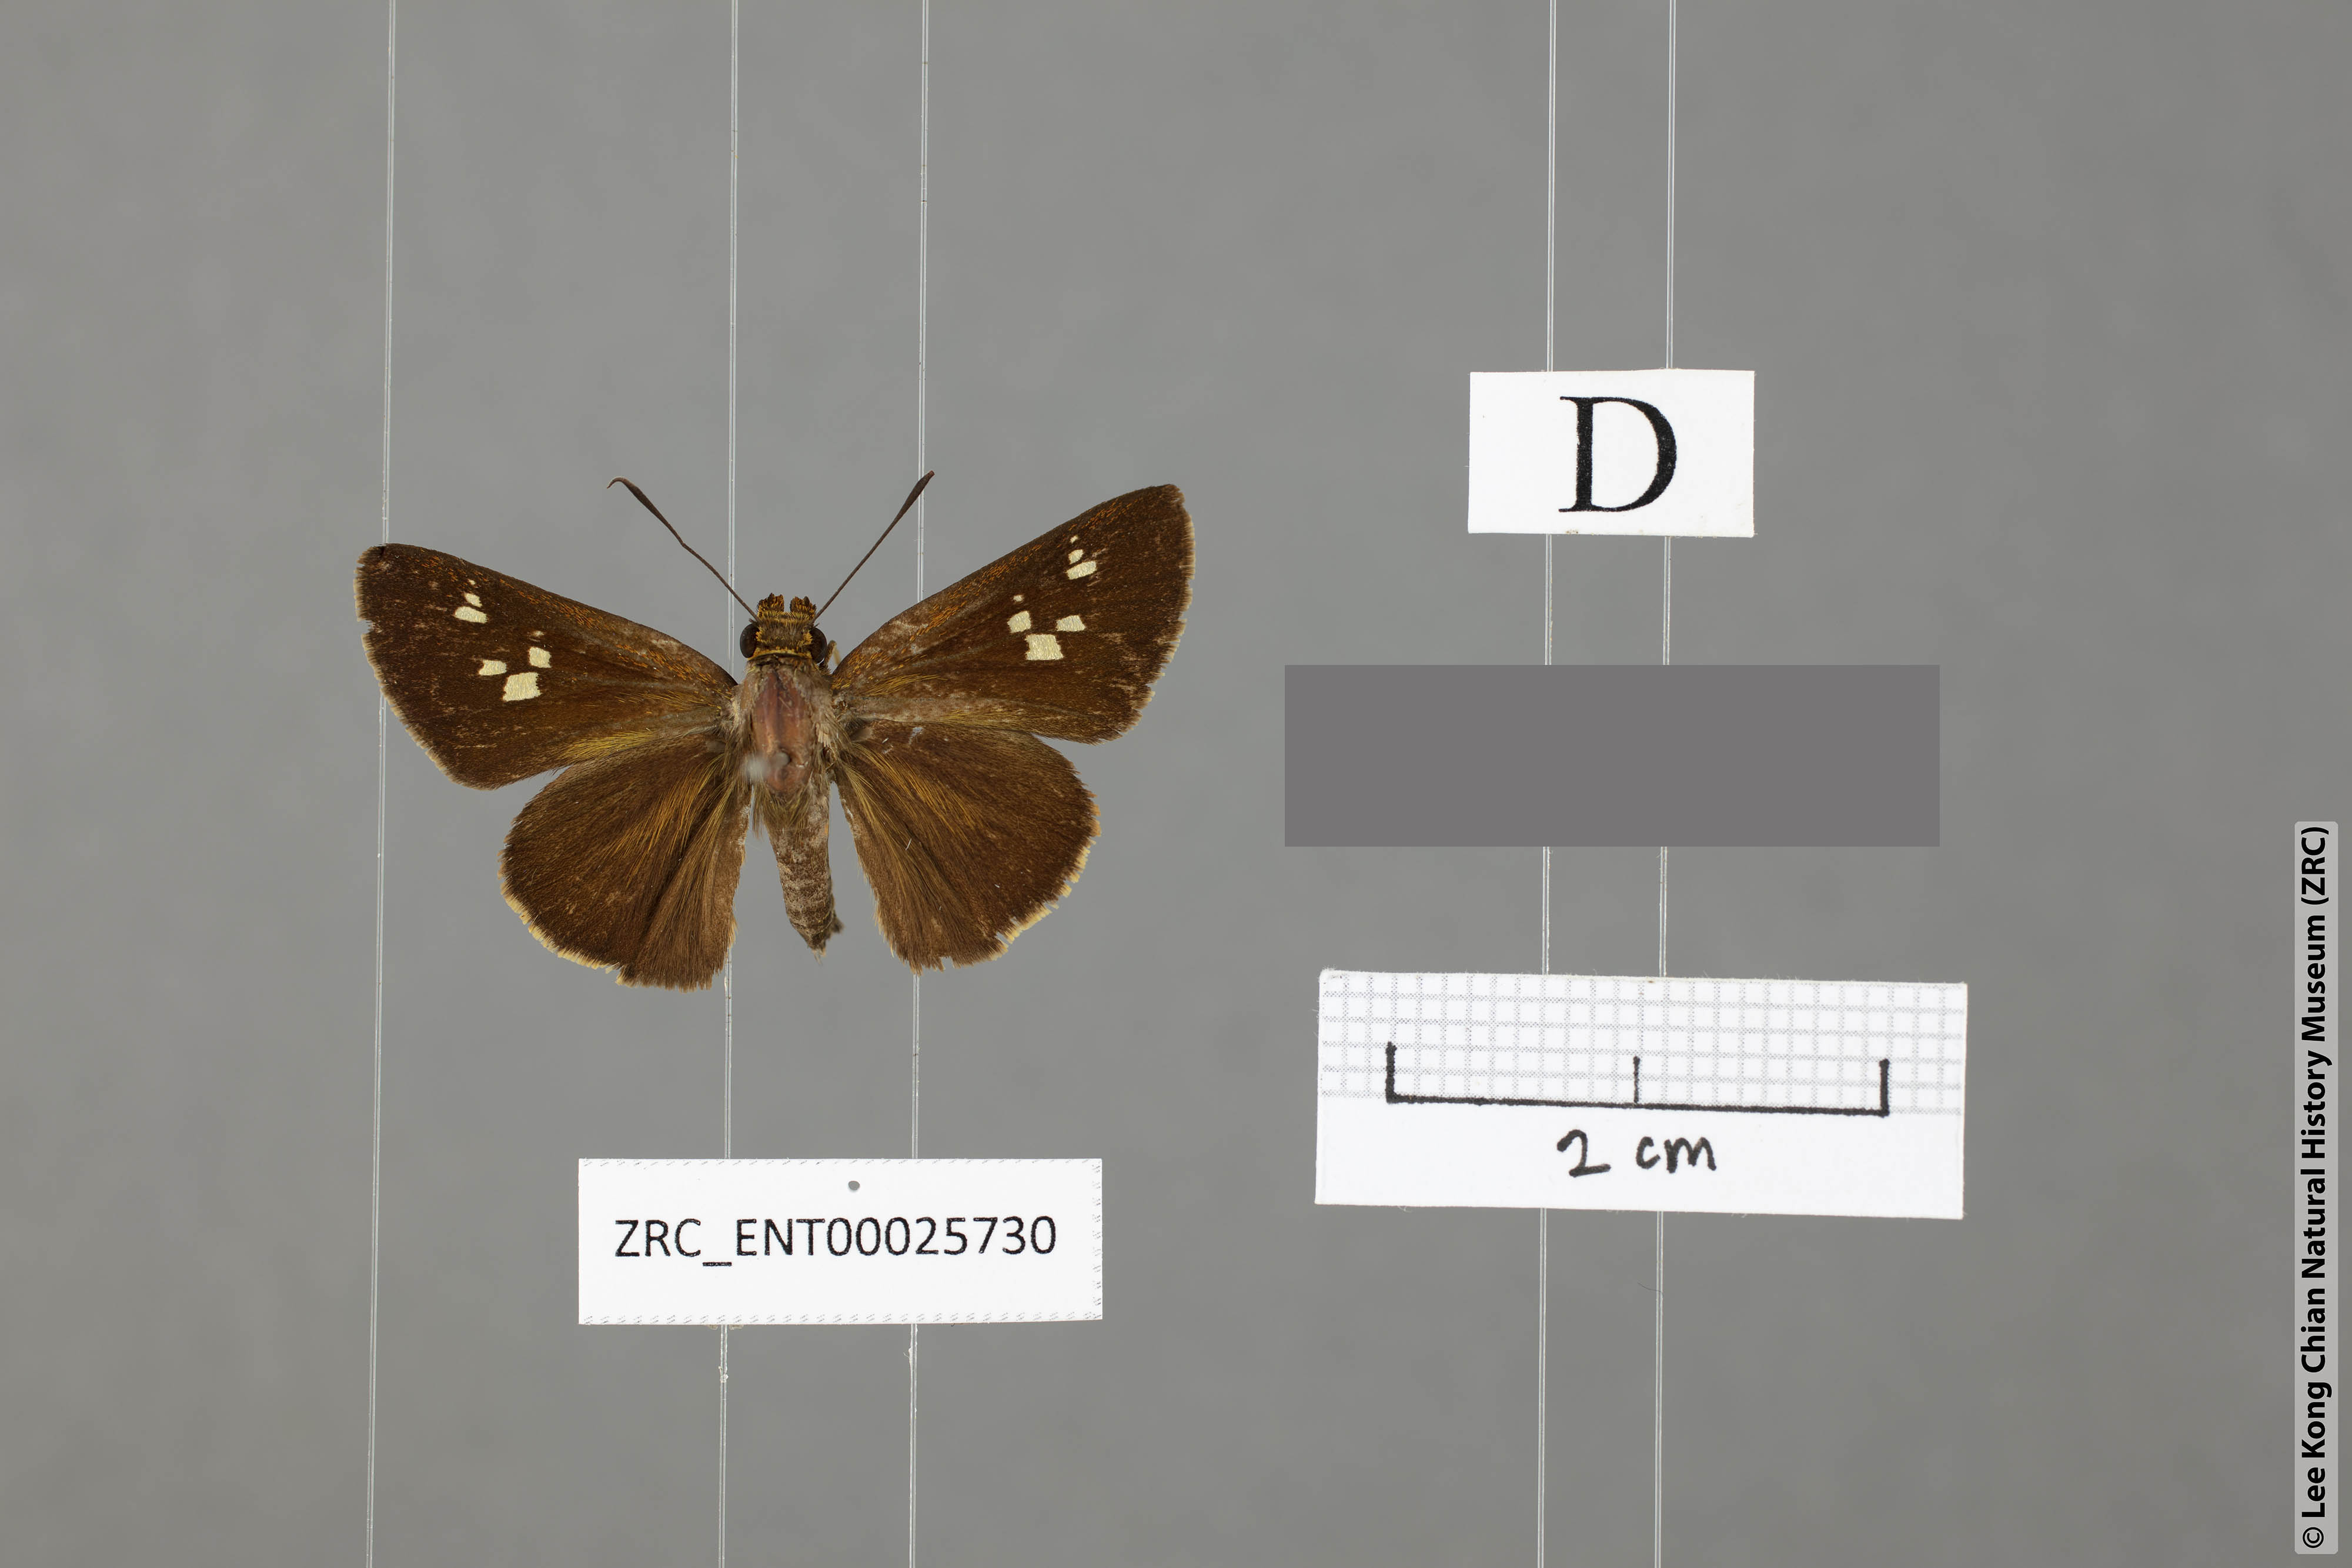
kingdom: Animalia
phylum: Arthropoda
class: Insecta
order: Lepidoptera
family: Hesperiidae
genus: Zographetus
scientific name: Zographetus kutu
